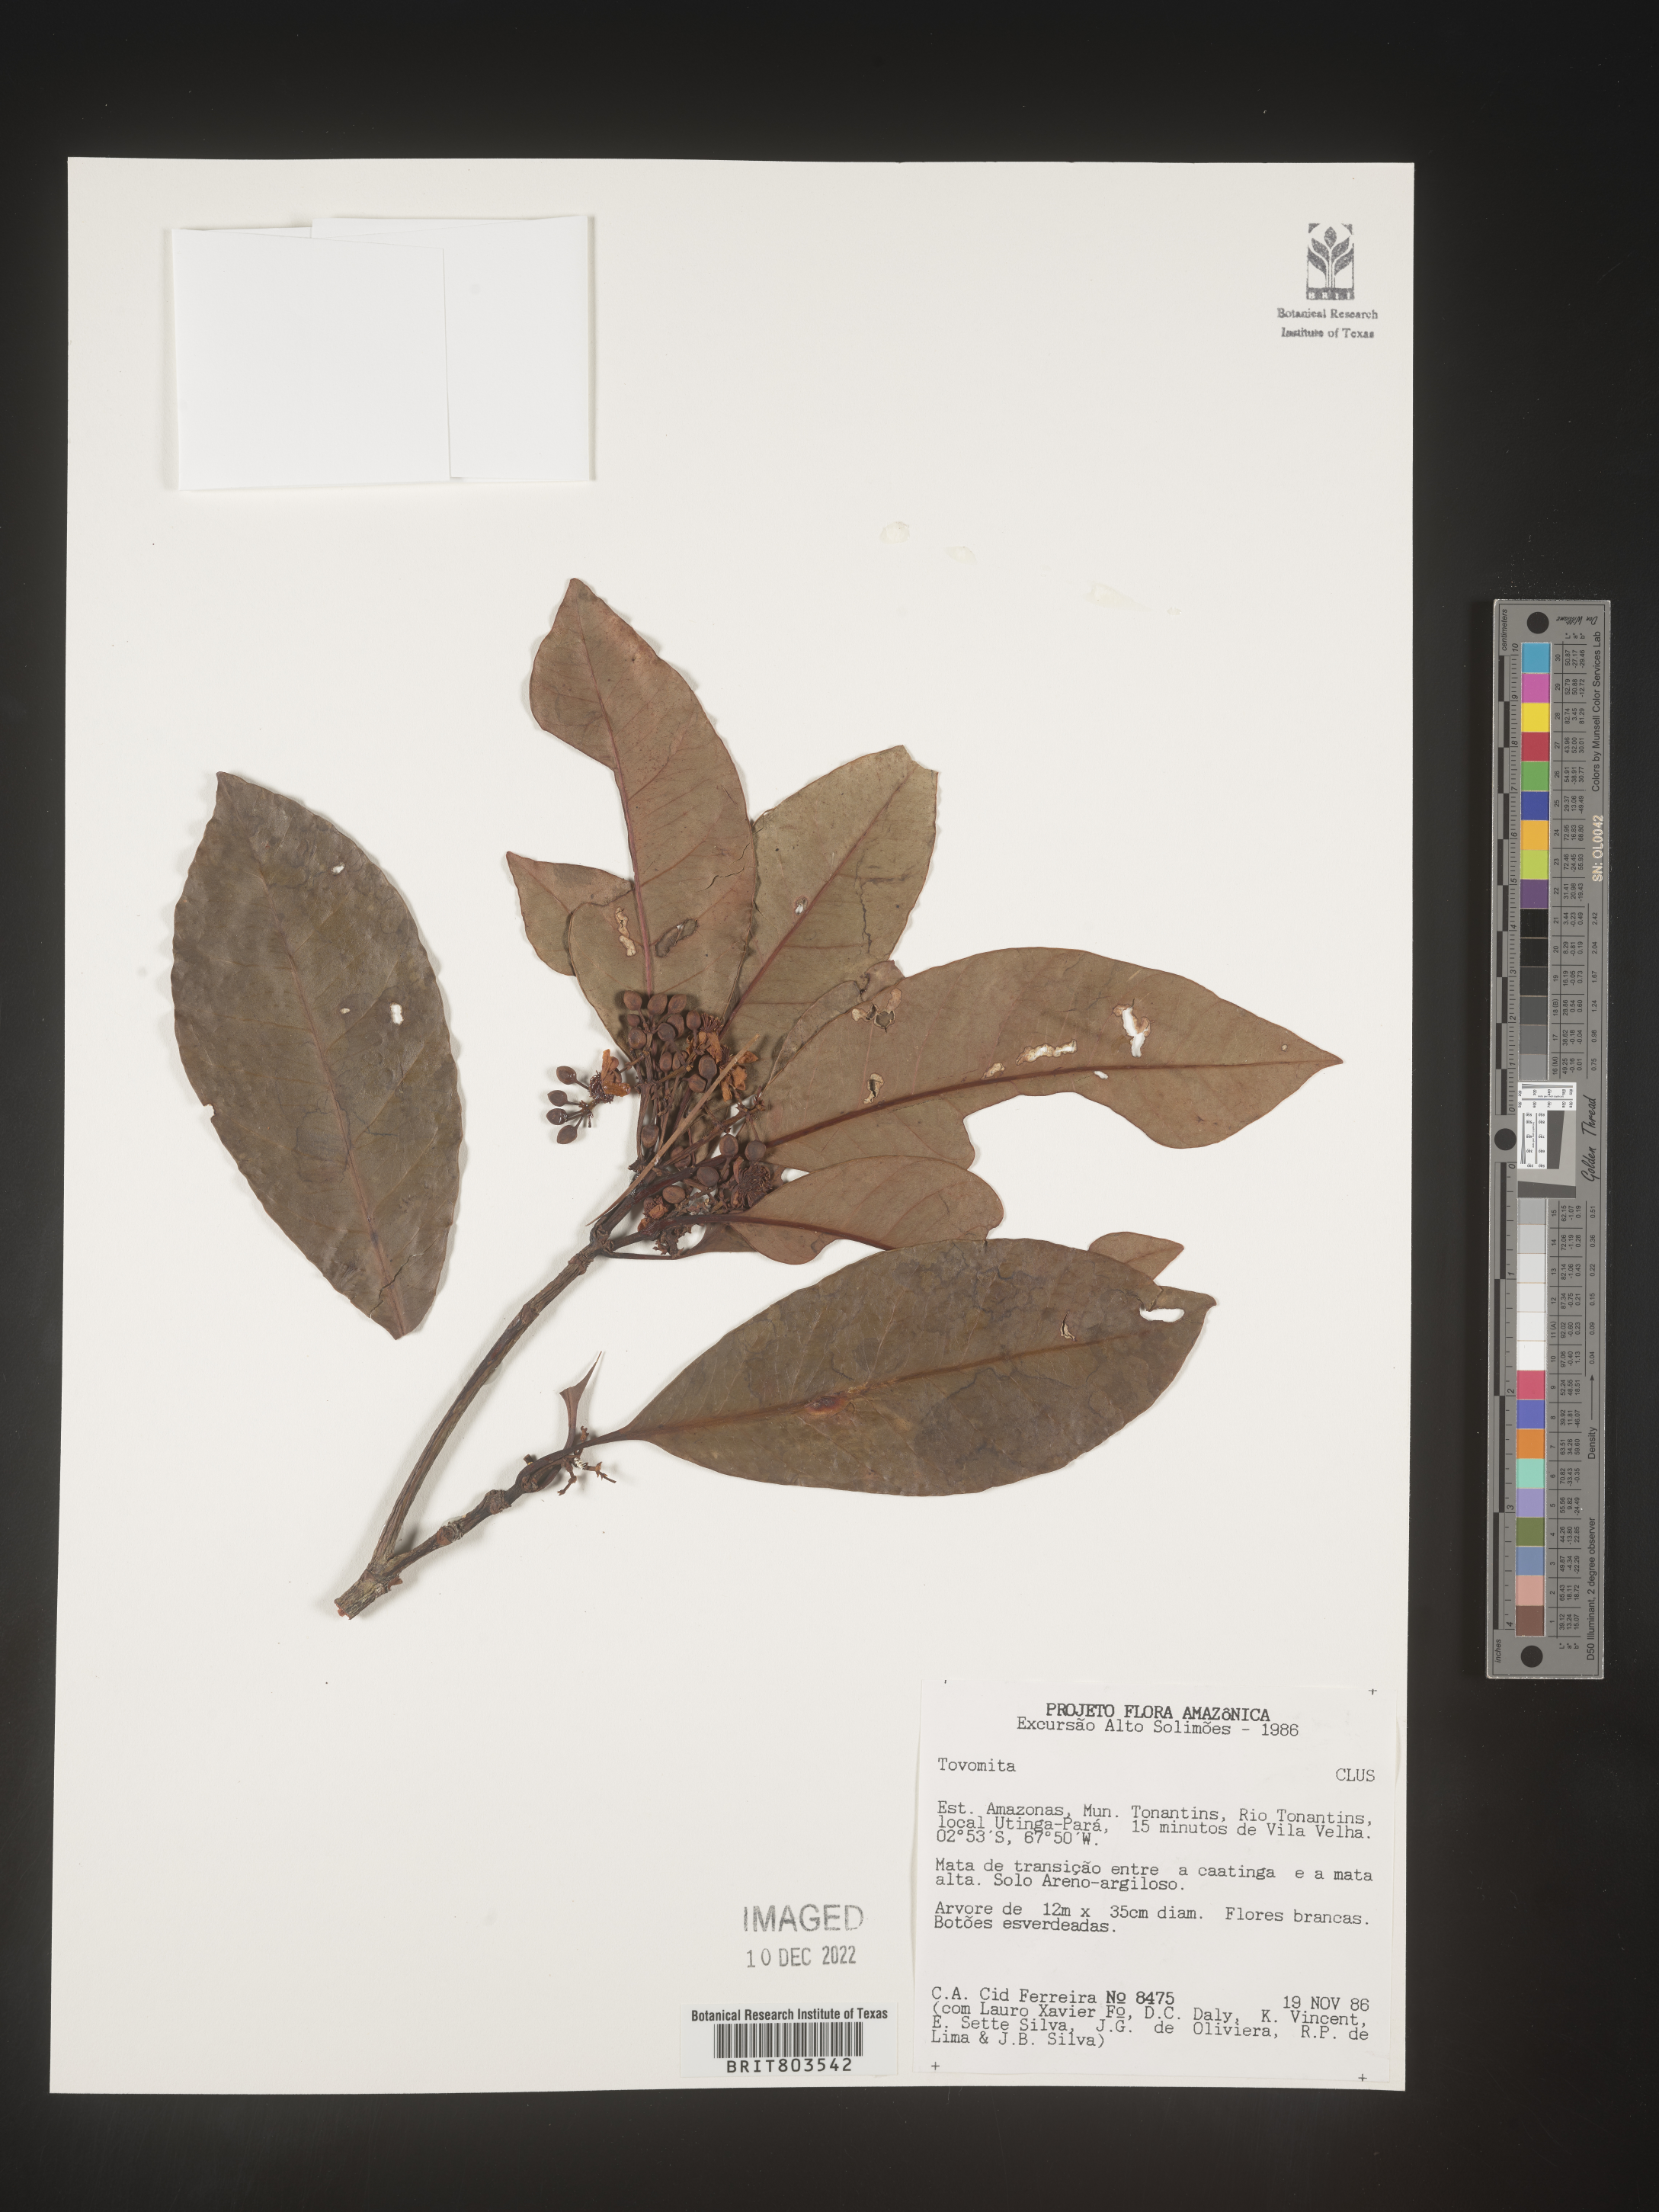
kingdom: Plantae
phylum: Tracheophyta
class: Magnoliopsida
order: Malpighiales
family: Clusiaceae
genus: Tovomita
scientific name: Tovomita
